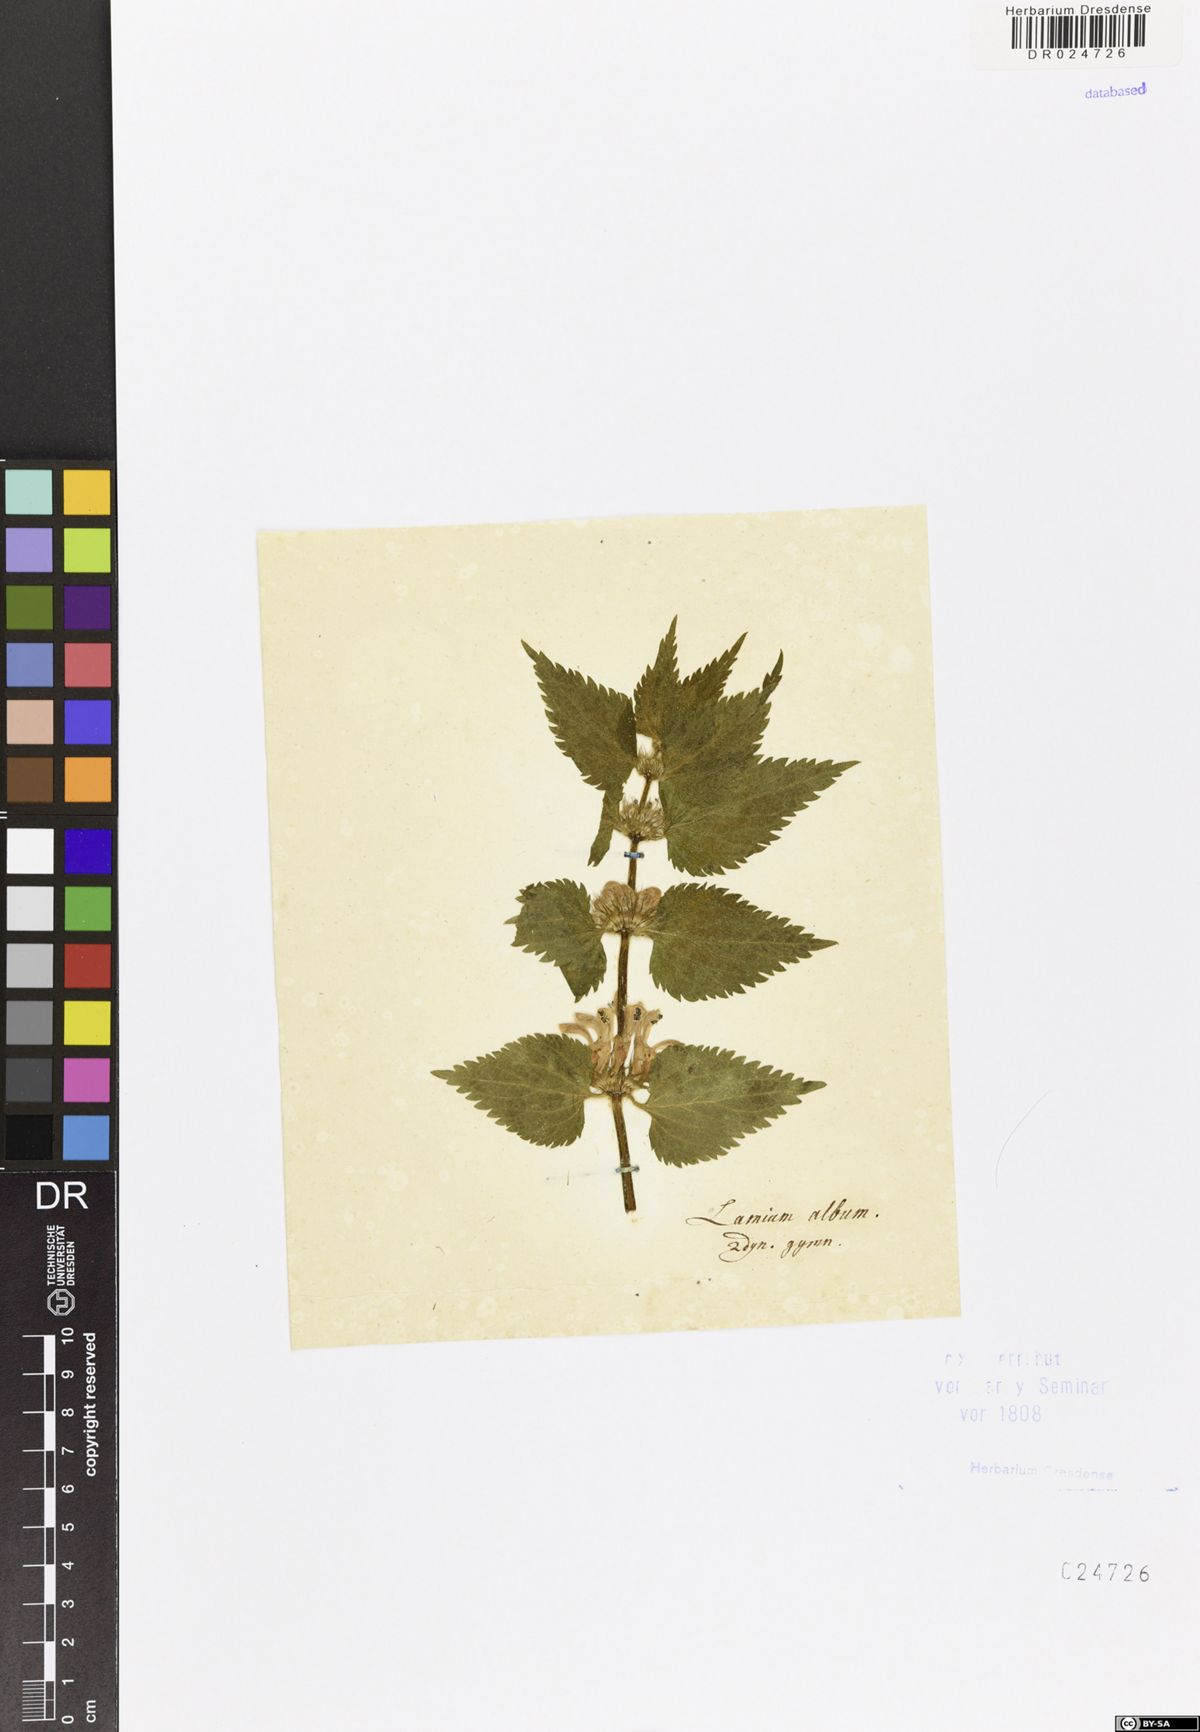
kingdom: Plantae
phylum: Tracheophyta
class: Magnoliopsida
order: Lamiales
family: Lamiaceae
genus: Lamium
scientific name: Lamium album
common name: White dead-nettle
